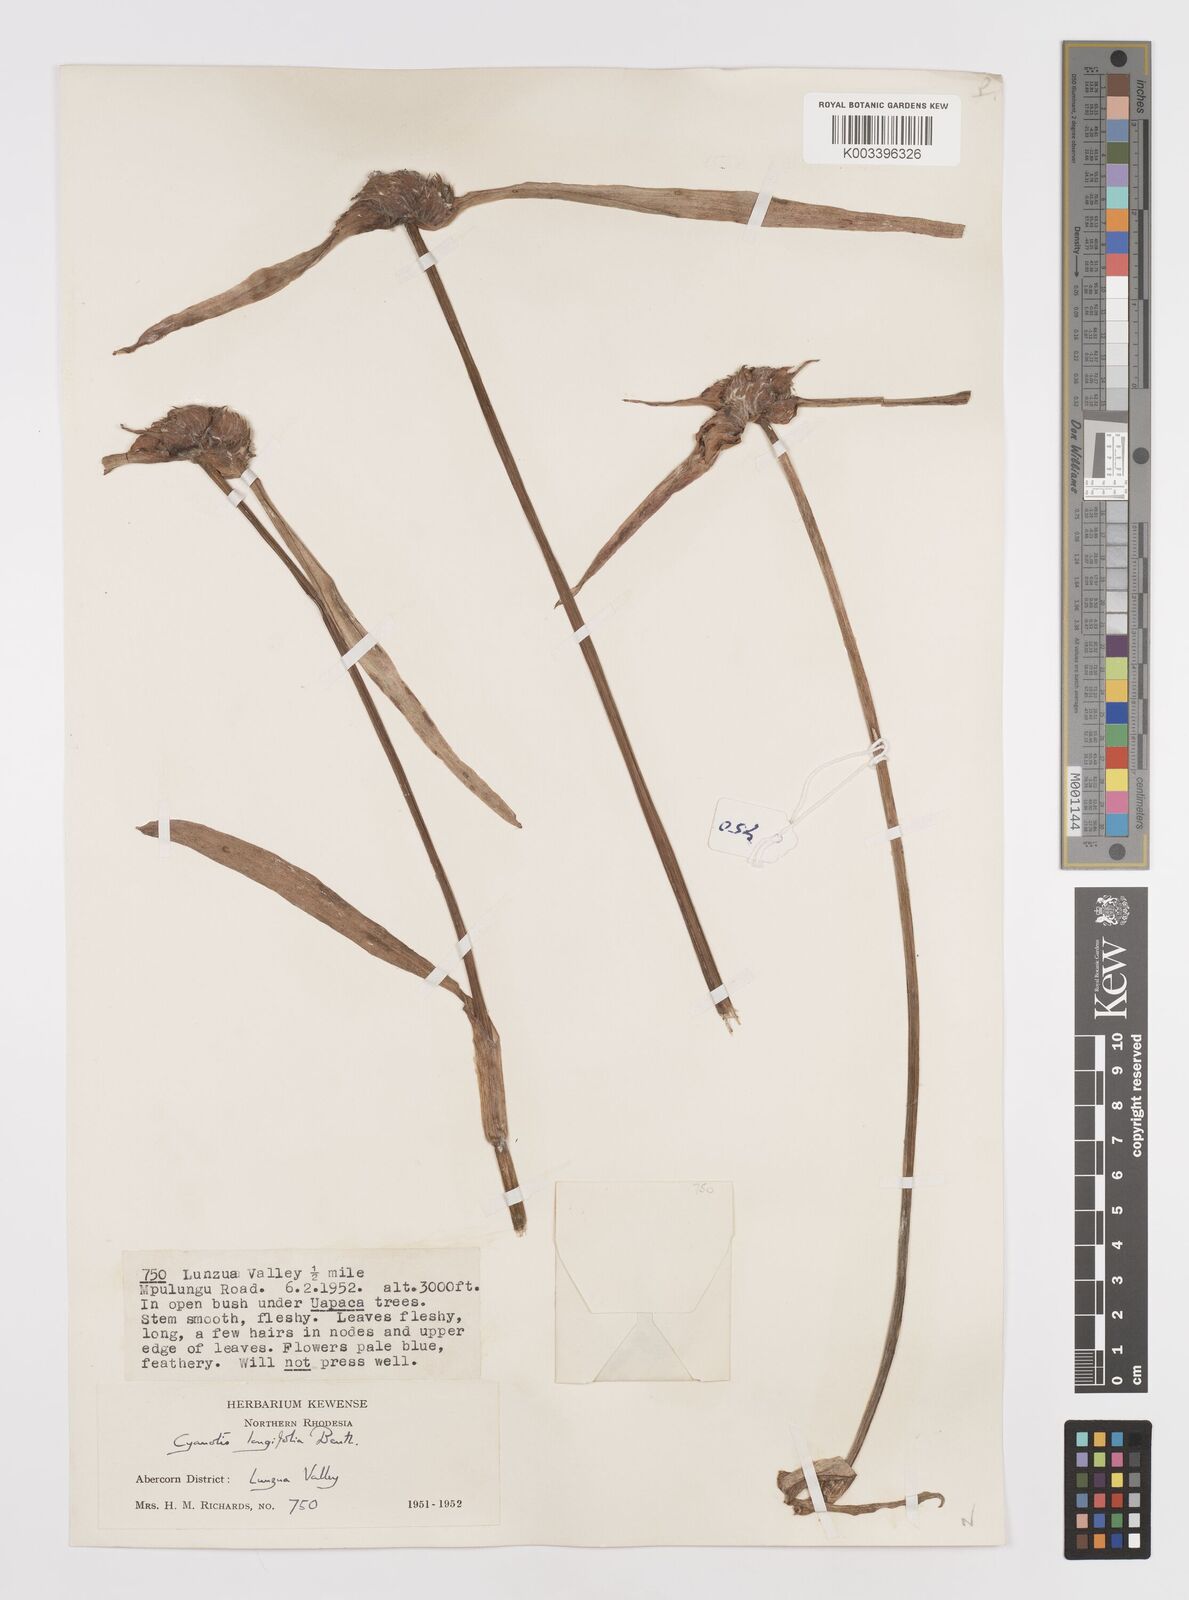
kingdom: Plantae
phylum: Tracheophyta
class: Liliopsida
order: Commelinales
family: Commelinaceae
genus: Cyanotis
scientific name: Cyanotis longifolia
